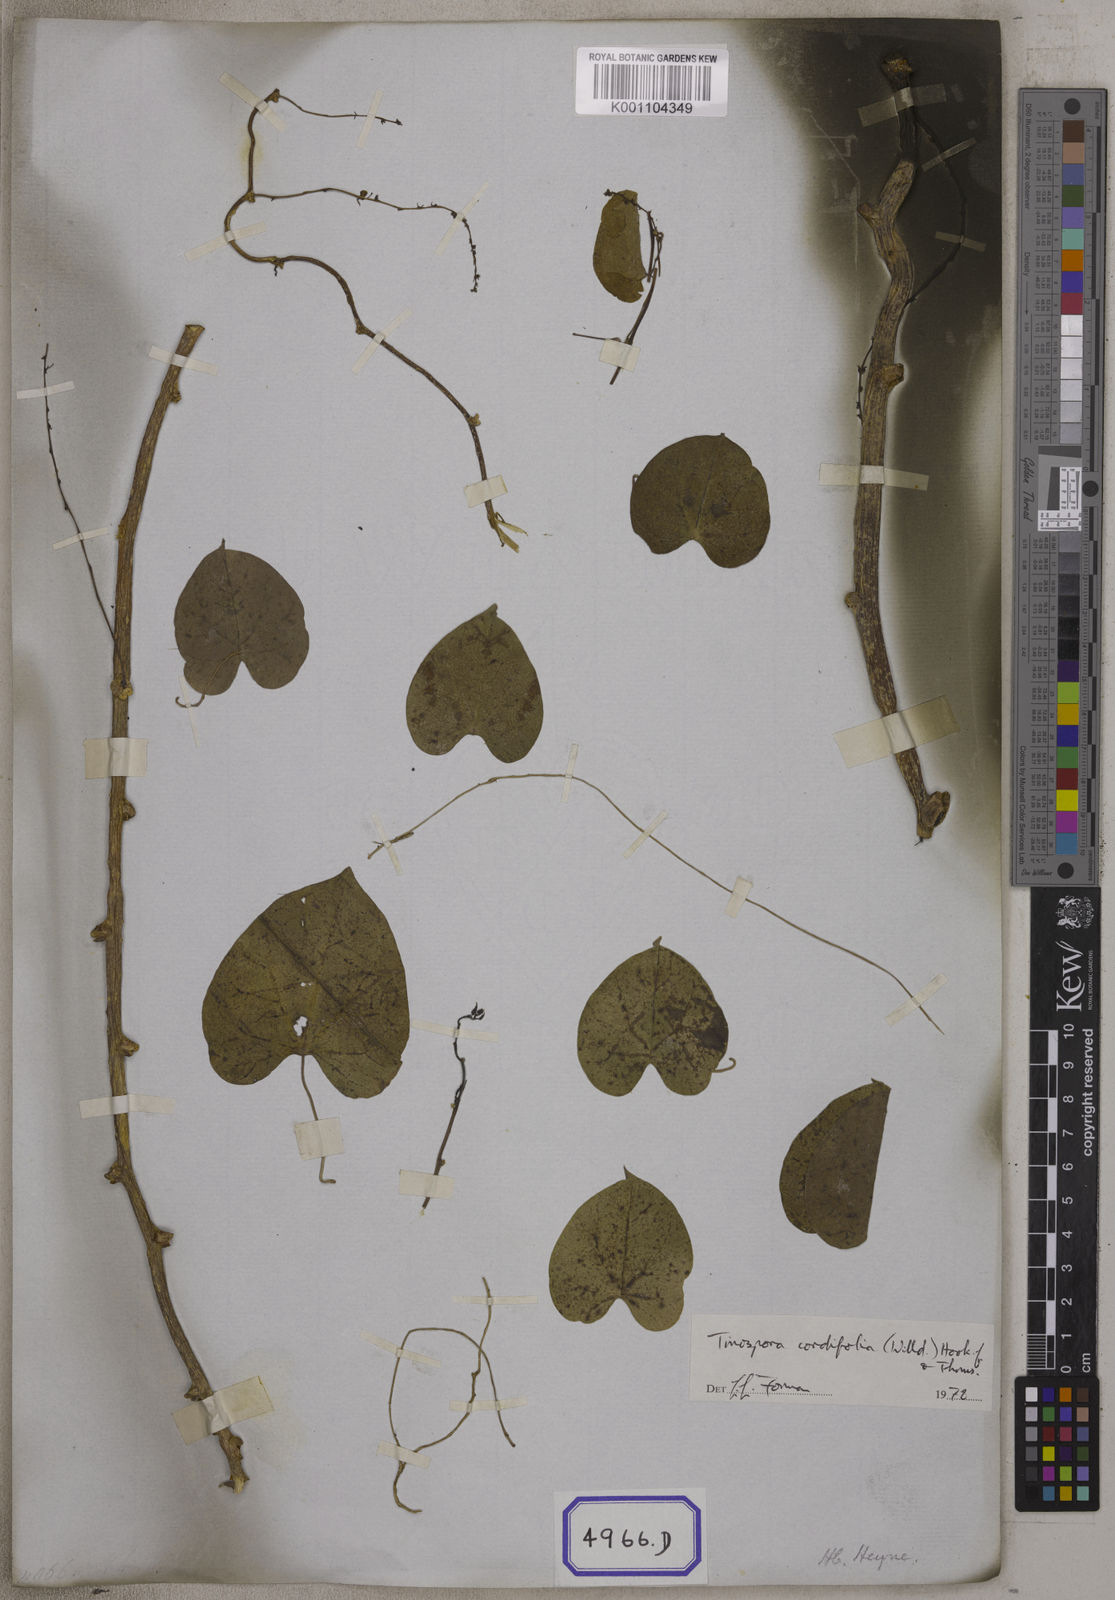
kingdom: Plantae
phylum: Tracheophyta
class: Magnoliopsida
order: Ranunculales
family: Menispermaceae
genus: Tinospora
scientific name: Tinospora crispa
